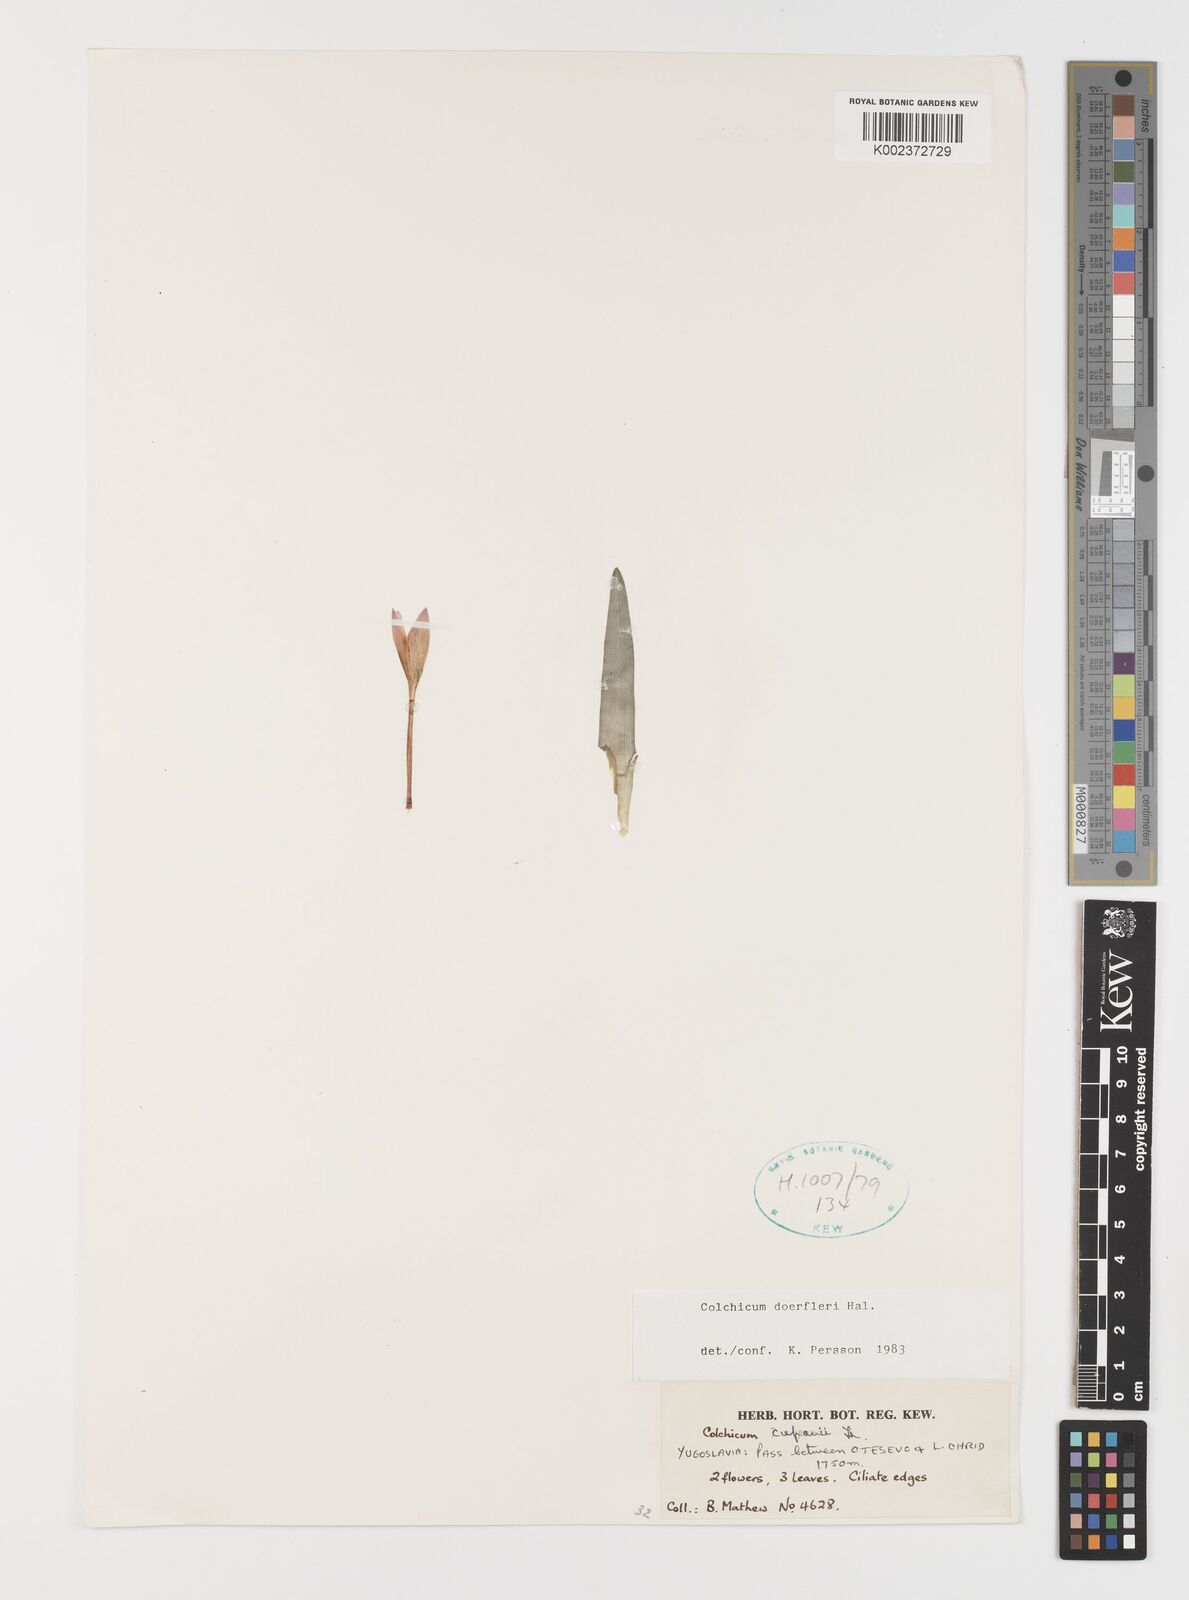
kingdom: Plantae
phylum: Tracheophyta
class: Liliopsida
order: Liliales
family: Colchicaceae
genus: Colchicum
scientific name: Colchicum doerfleri
